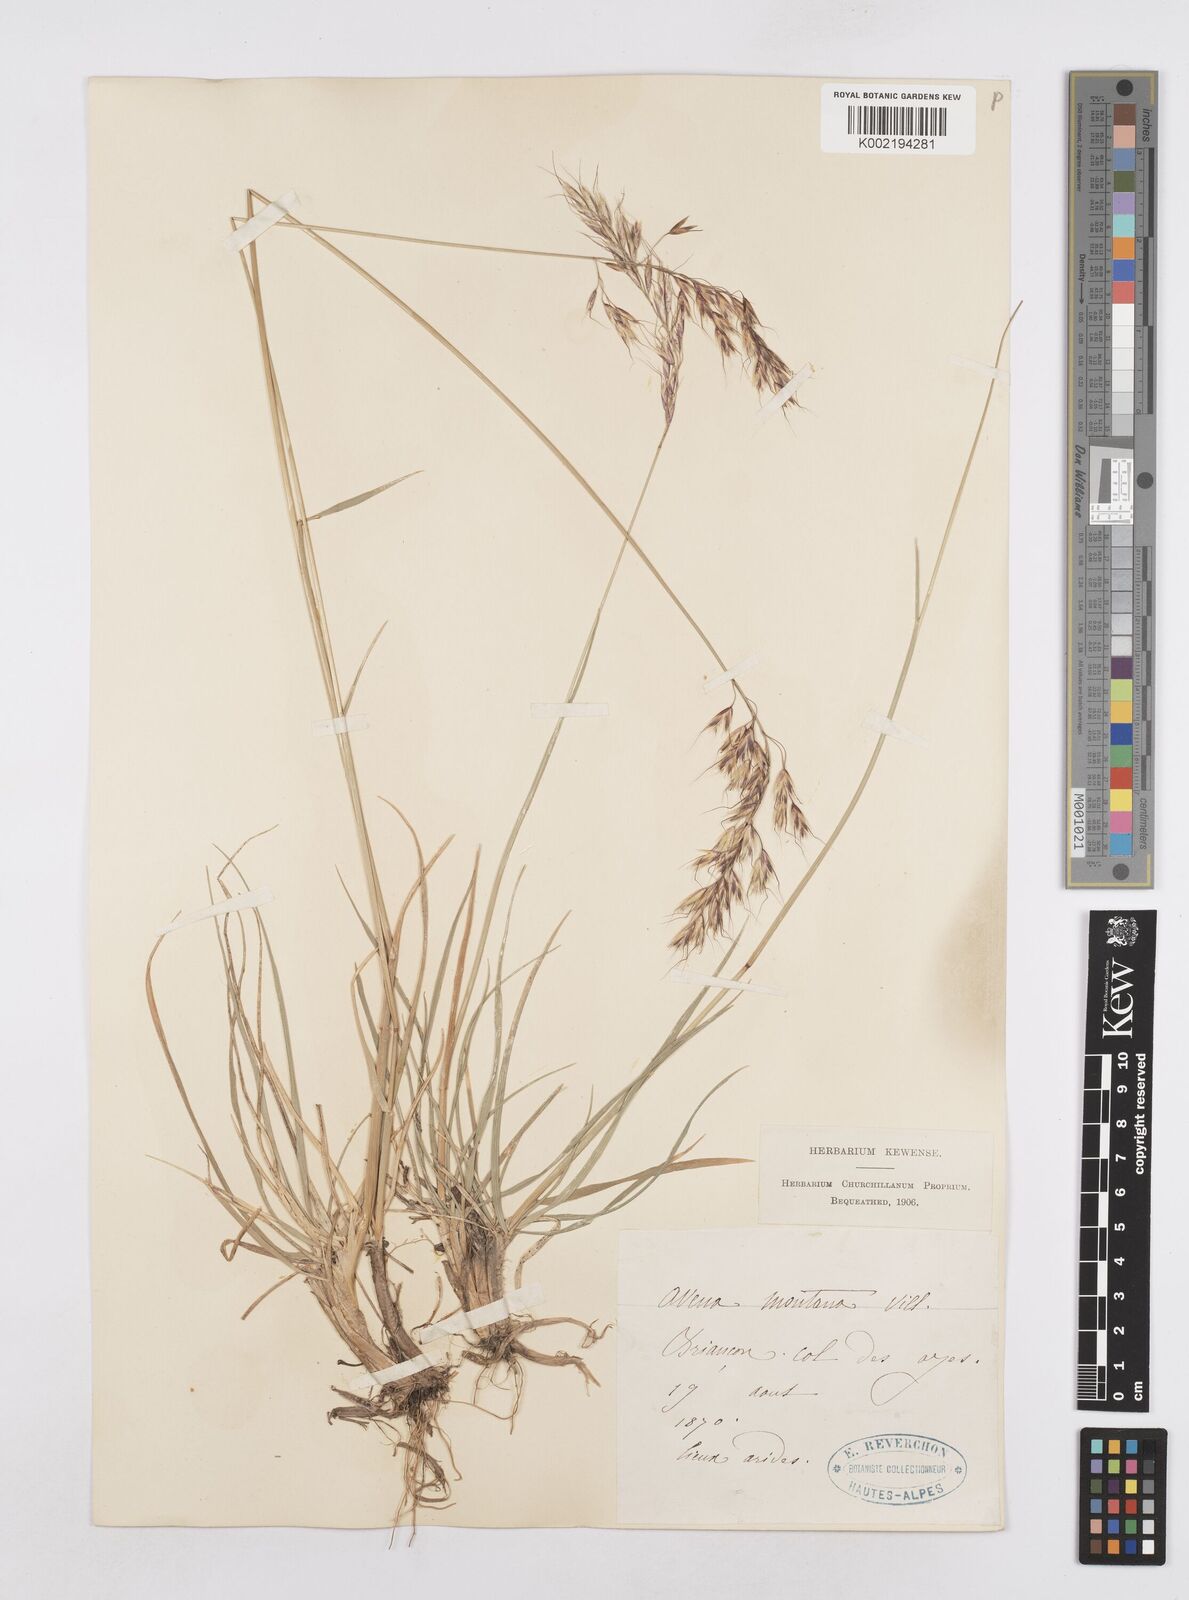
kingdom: Plantae
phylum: Tracheophyta
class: Liliopsida
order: Poales
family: Poaceae
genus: Helictotrichon
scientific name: Helictotrichon sedenense
